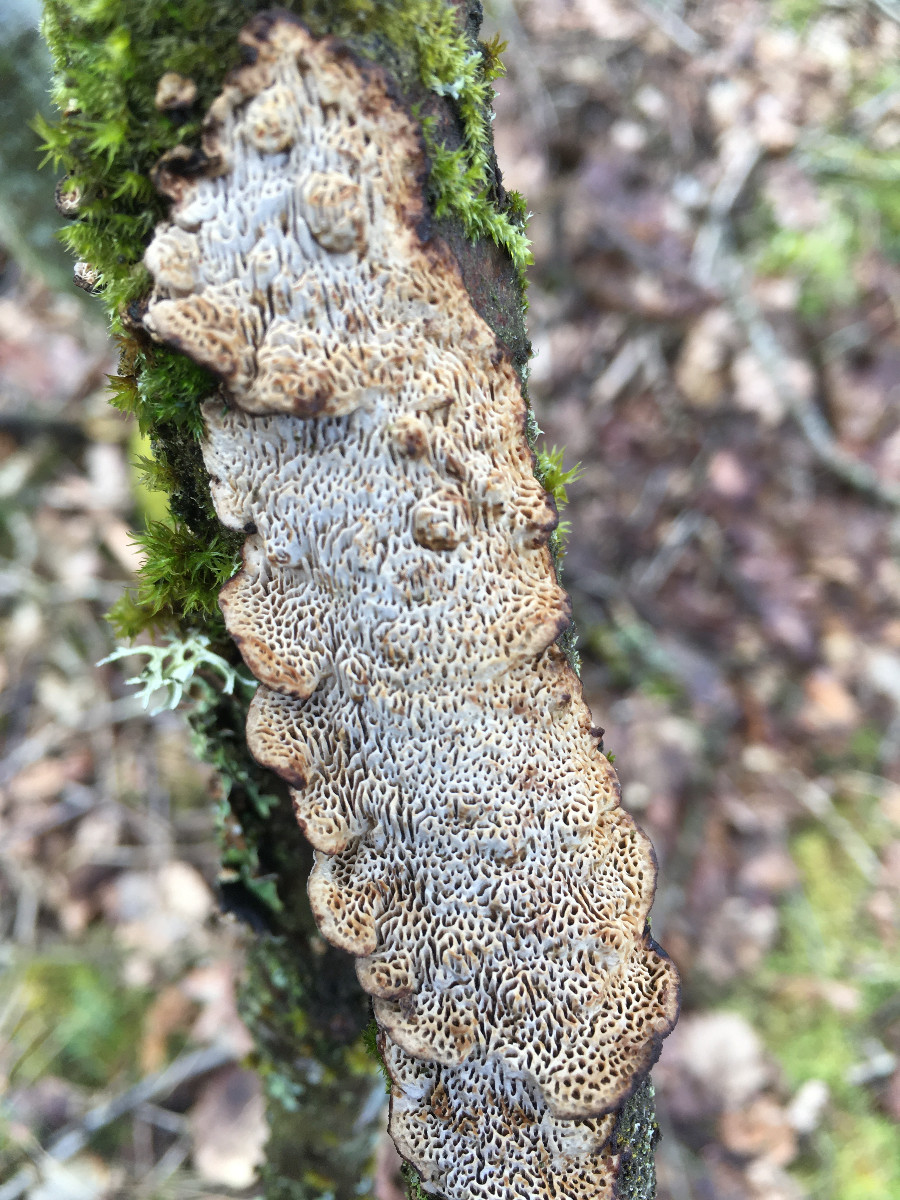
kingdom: Fungi
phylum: Basidiomycota
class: Agaricomycetes
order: Polyporales
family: Polyporaceae
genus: Podofomes
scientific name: Podofomes mollis
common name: blød begporesvamp
